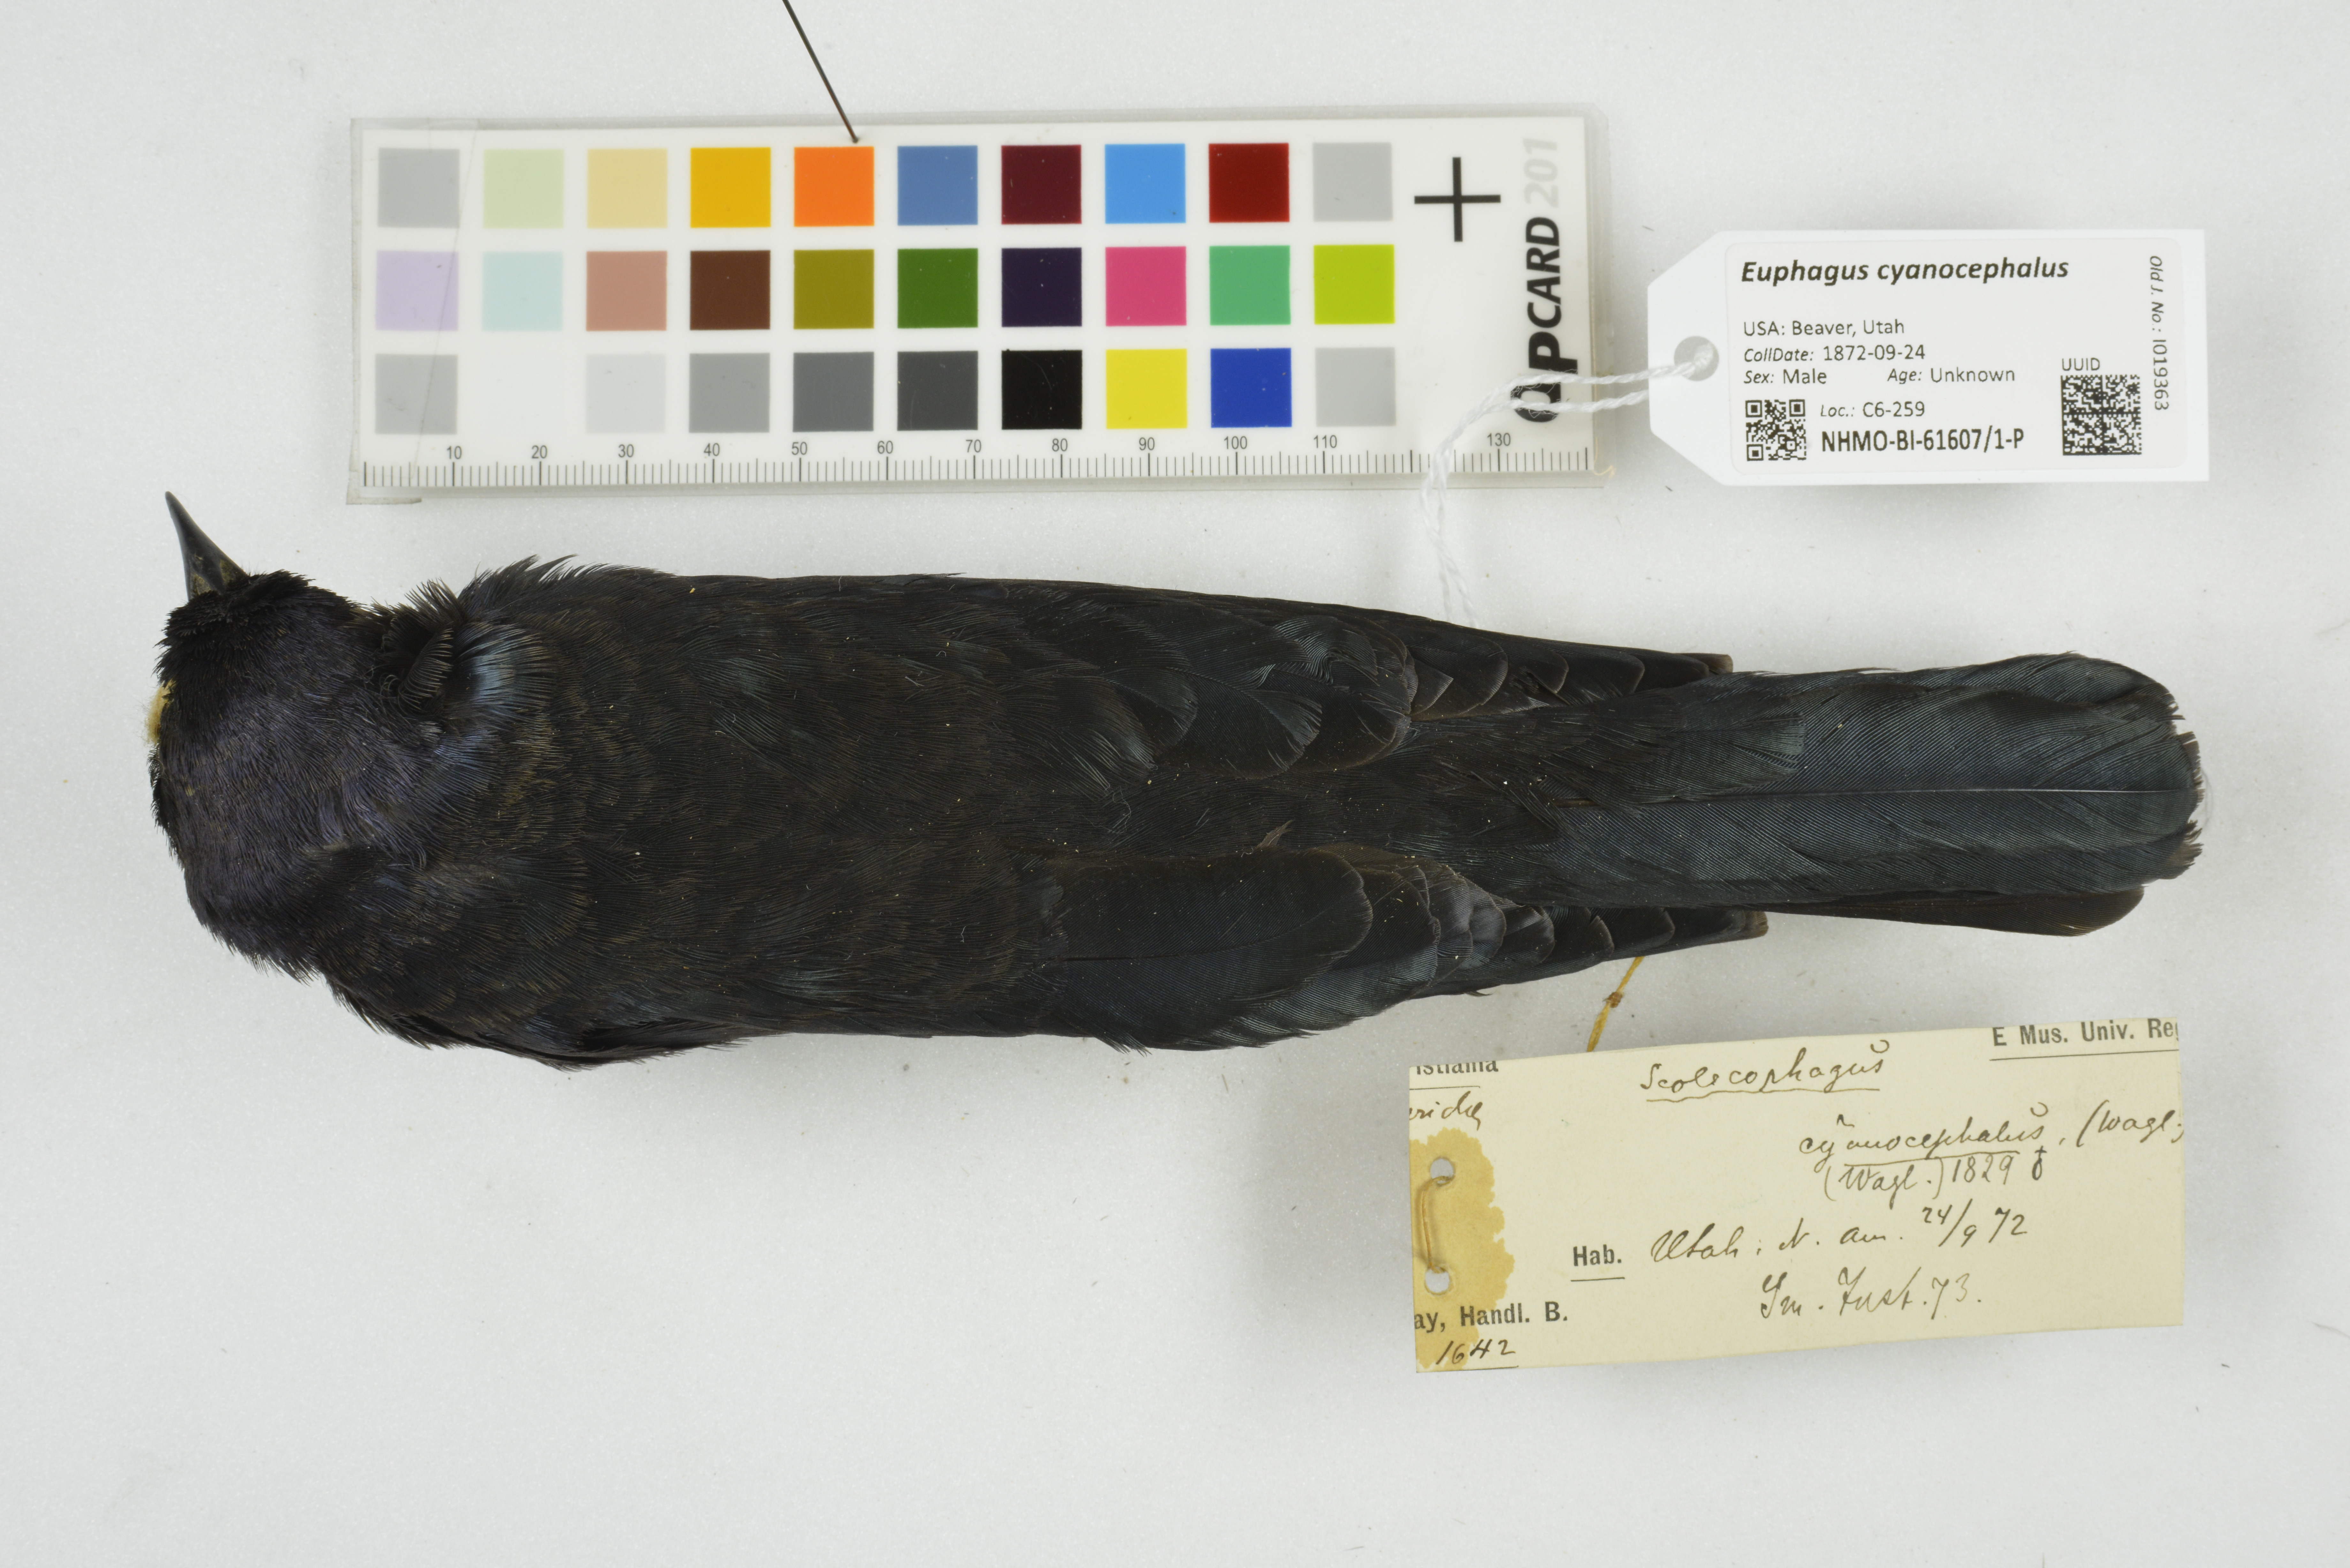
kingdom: Animalia
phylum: Chordata
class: Aves
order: Passeriformes
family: Icteridae
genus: Euphagus
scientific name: Euphagus cyanocephalus
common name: Brewer's blackbird
